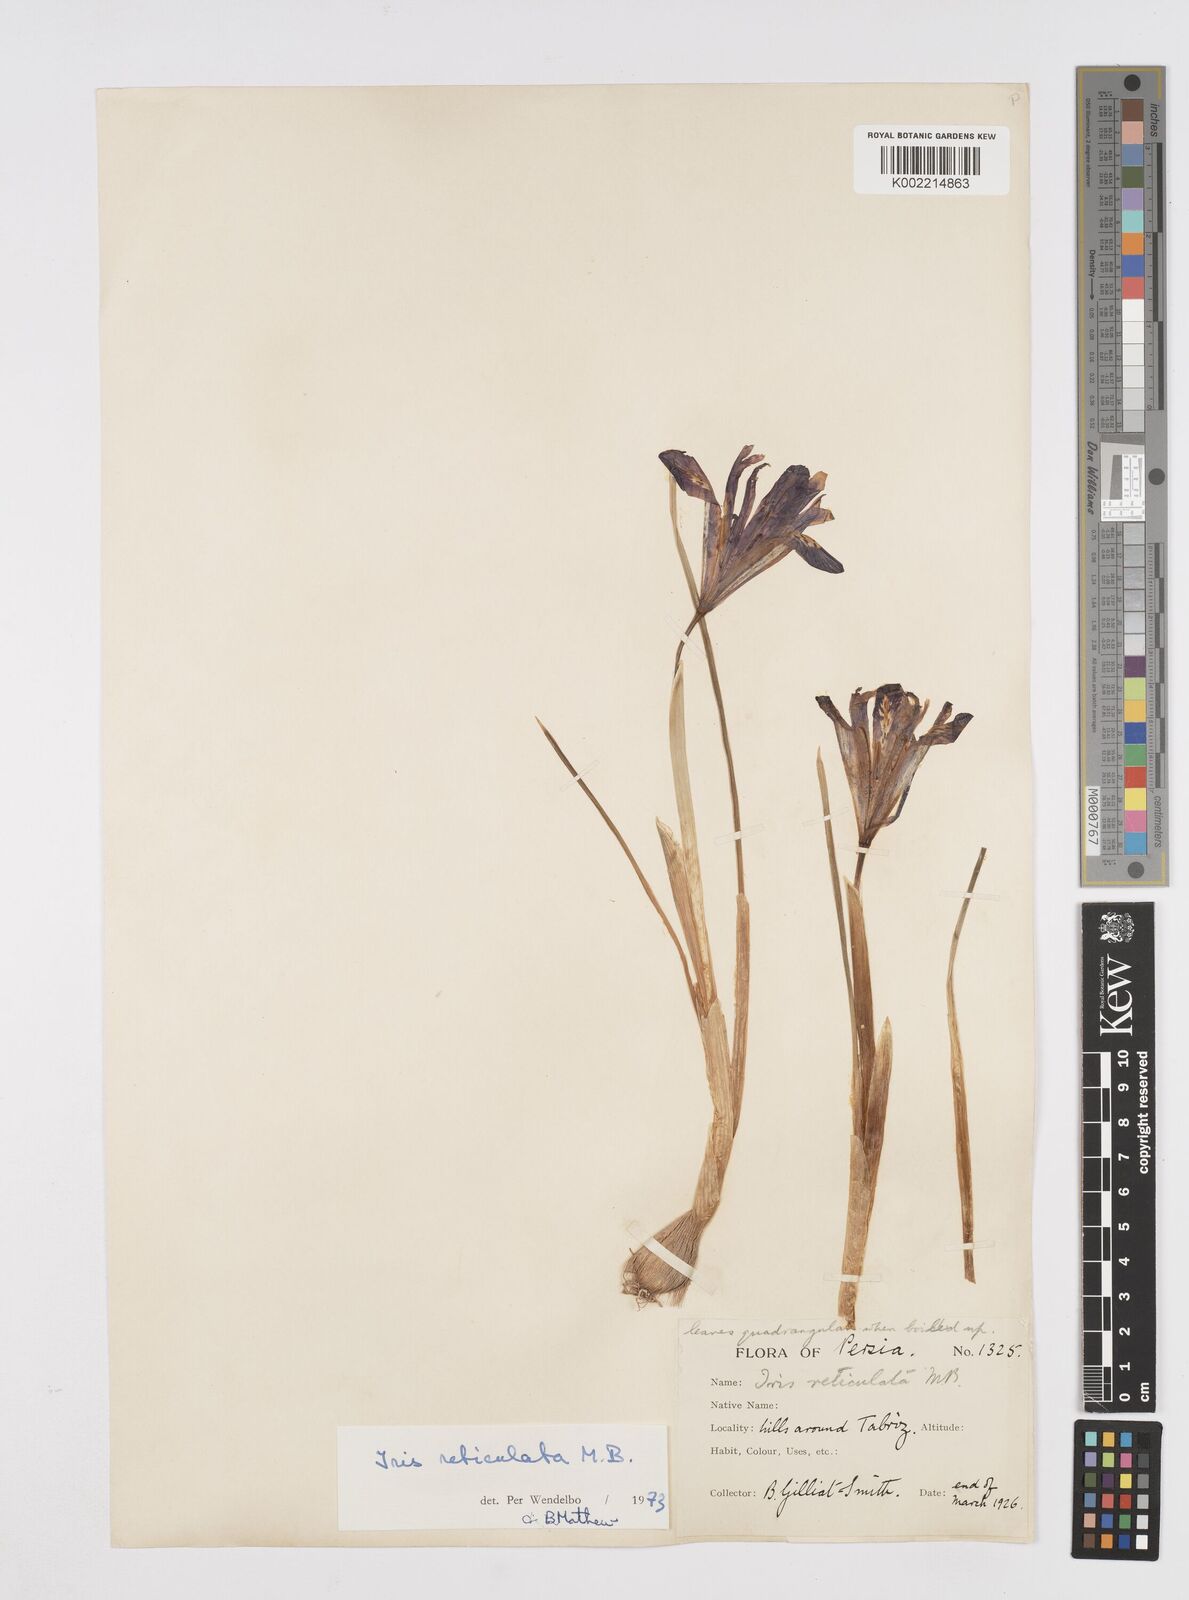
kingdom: Plantae
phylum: Tracheophyta
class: Liliopsida
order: Asparagales
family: Iridaceae
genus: Iris
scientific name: Iris reticulata
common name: Netted iris
